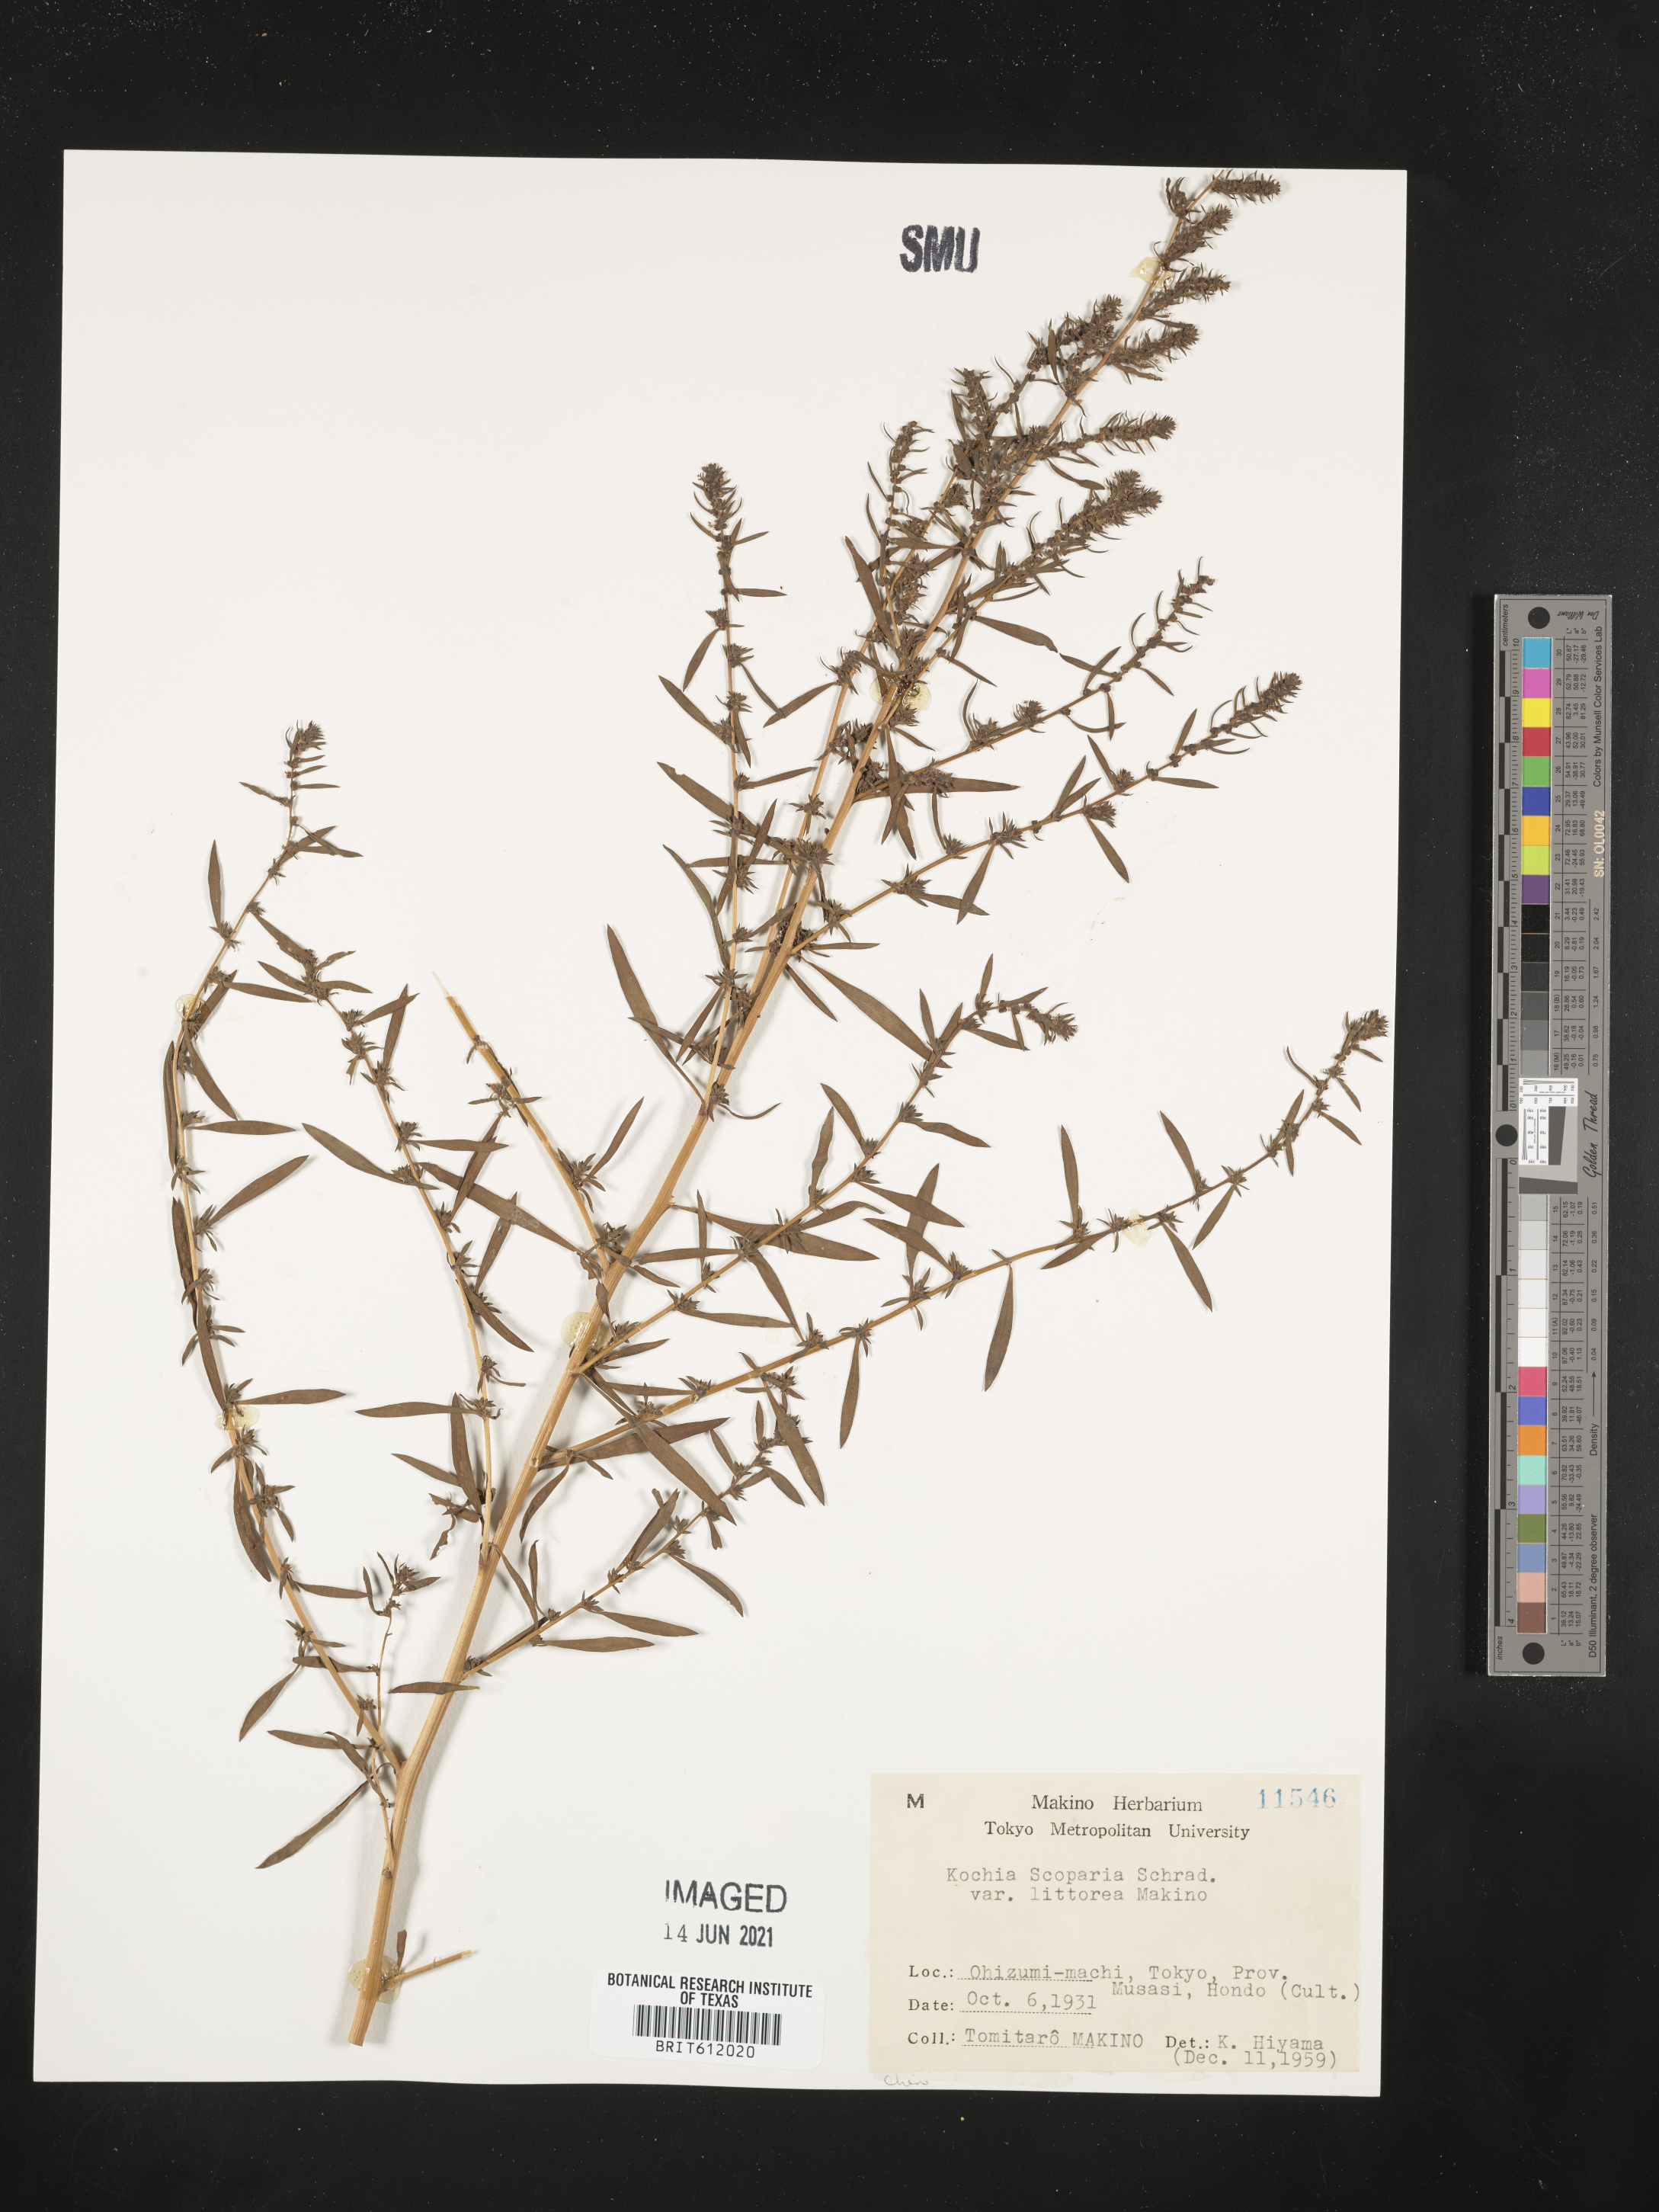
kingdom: Plantae
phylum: Tracheophyta
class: Magnoliopsida
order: Caryophyllales
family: Amaranthaceae
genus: Bassia
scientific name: Bassia littorea
